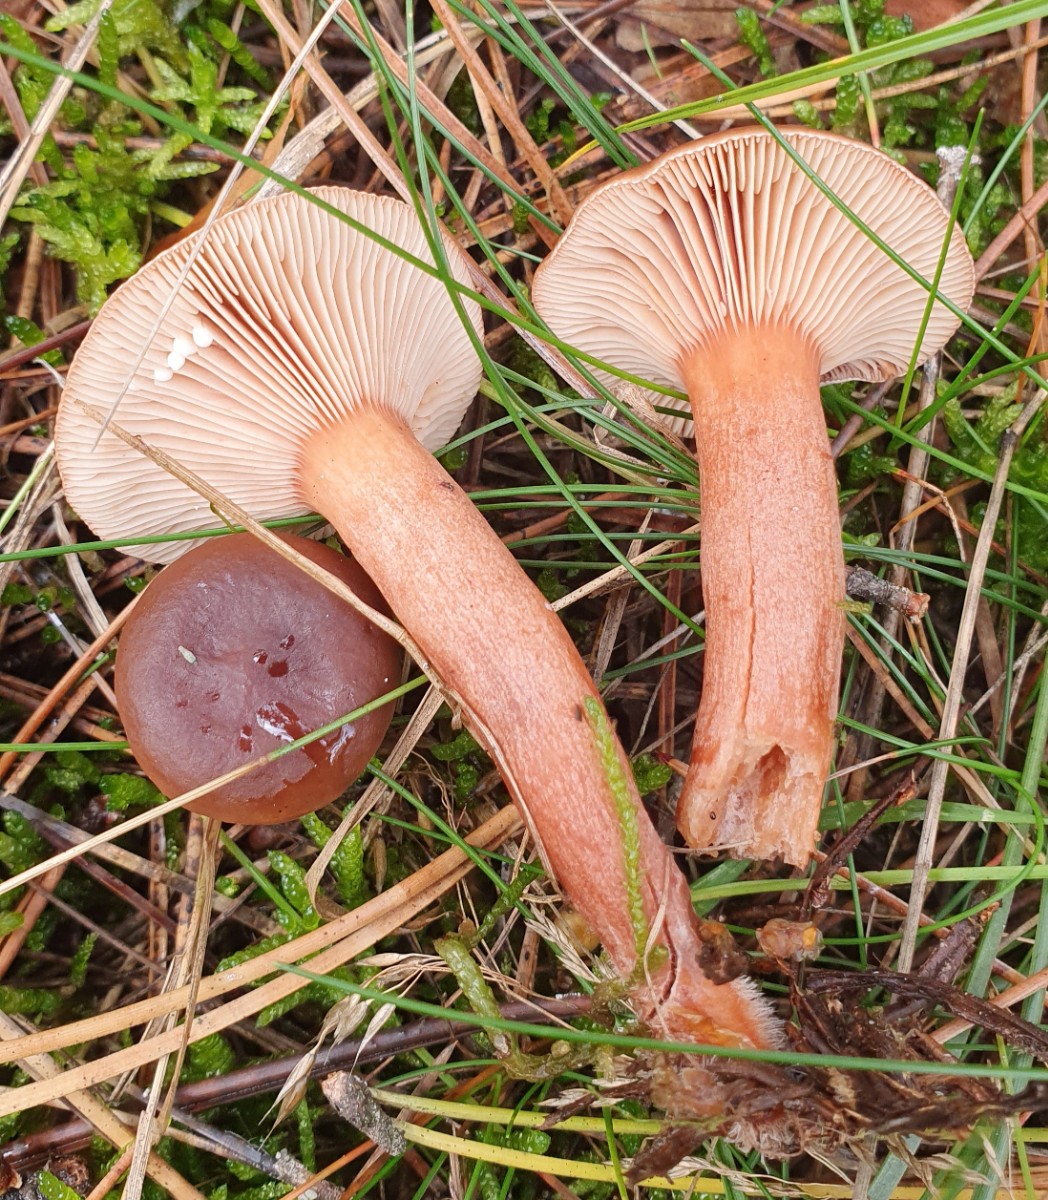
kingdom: Fungi
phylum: Basidiomycota
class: Agaricomycetes
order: Russulales
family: Russulaceae
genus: Lactarius
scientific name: Lactarius rufus
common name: rødbrun mælkehat
